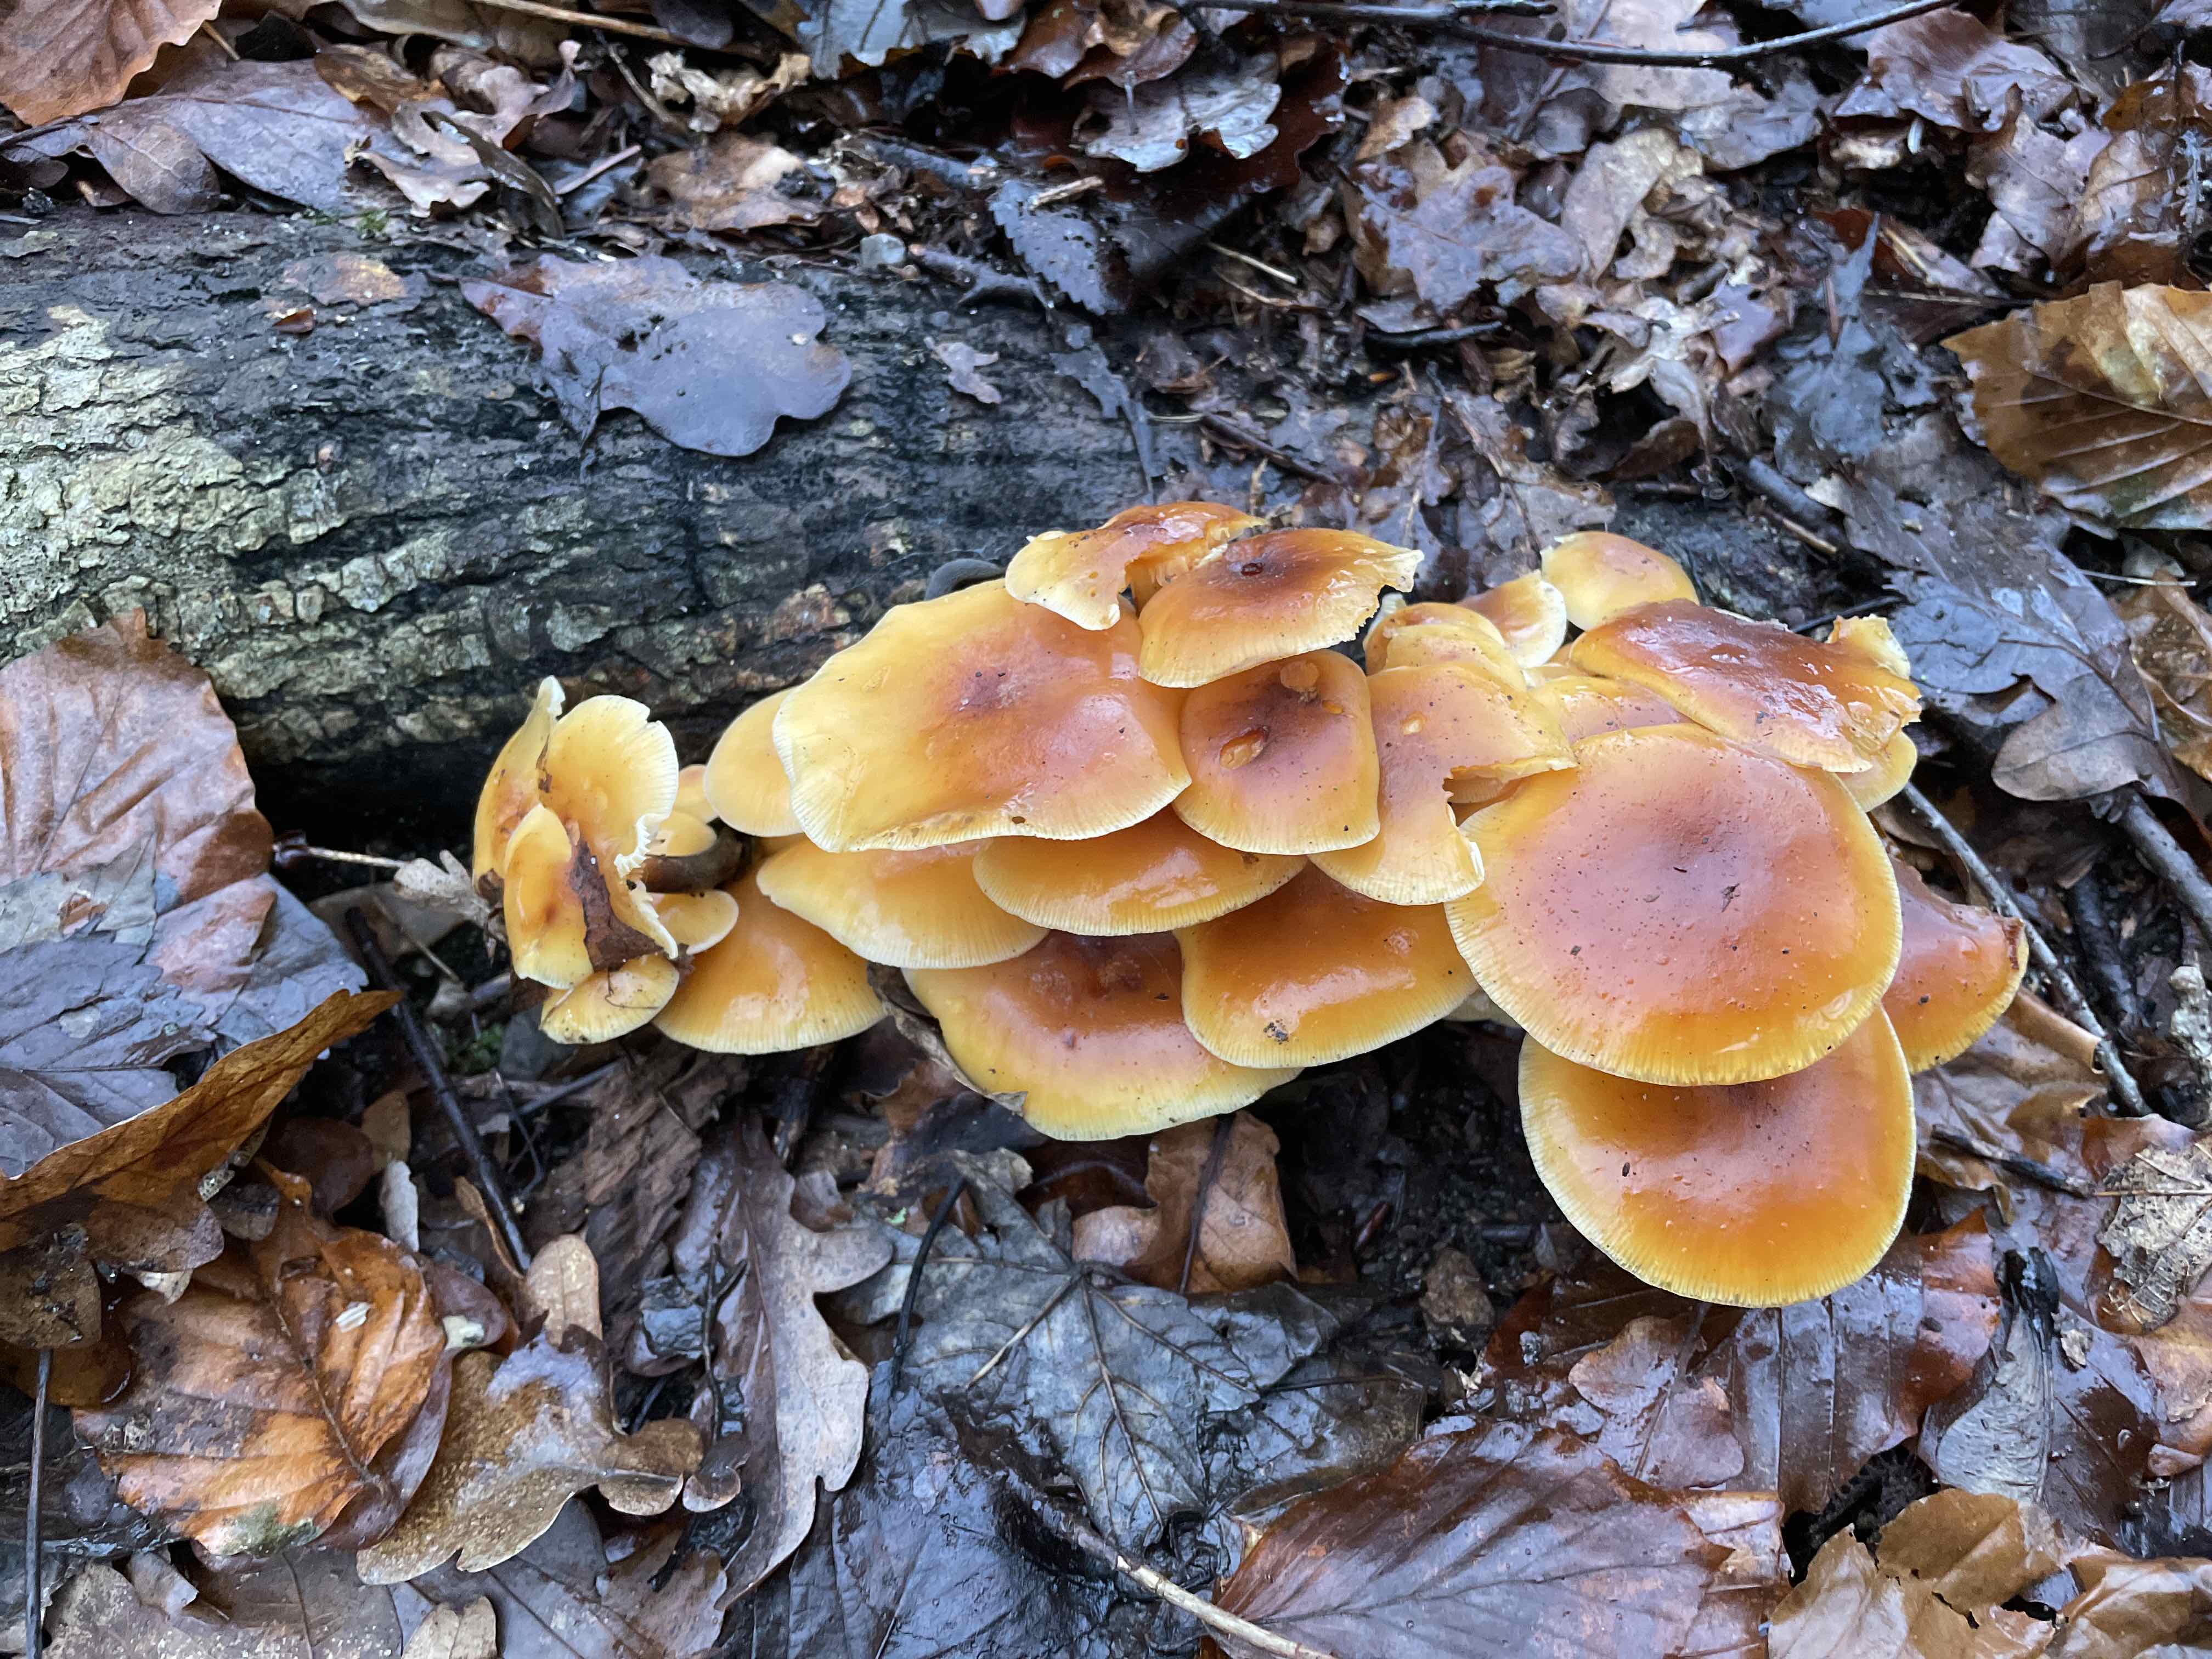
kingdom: Fungi
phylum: Basidiomycota
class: Agaricomycetes
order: Agaricales
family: Physalacriaceae
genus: Flammulina
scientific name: Flammulina velutipes
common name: gul fløjlsfod
